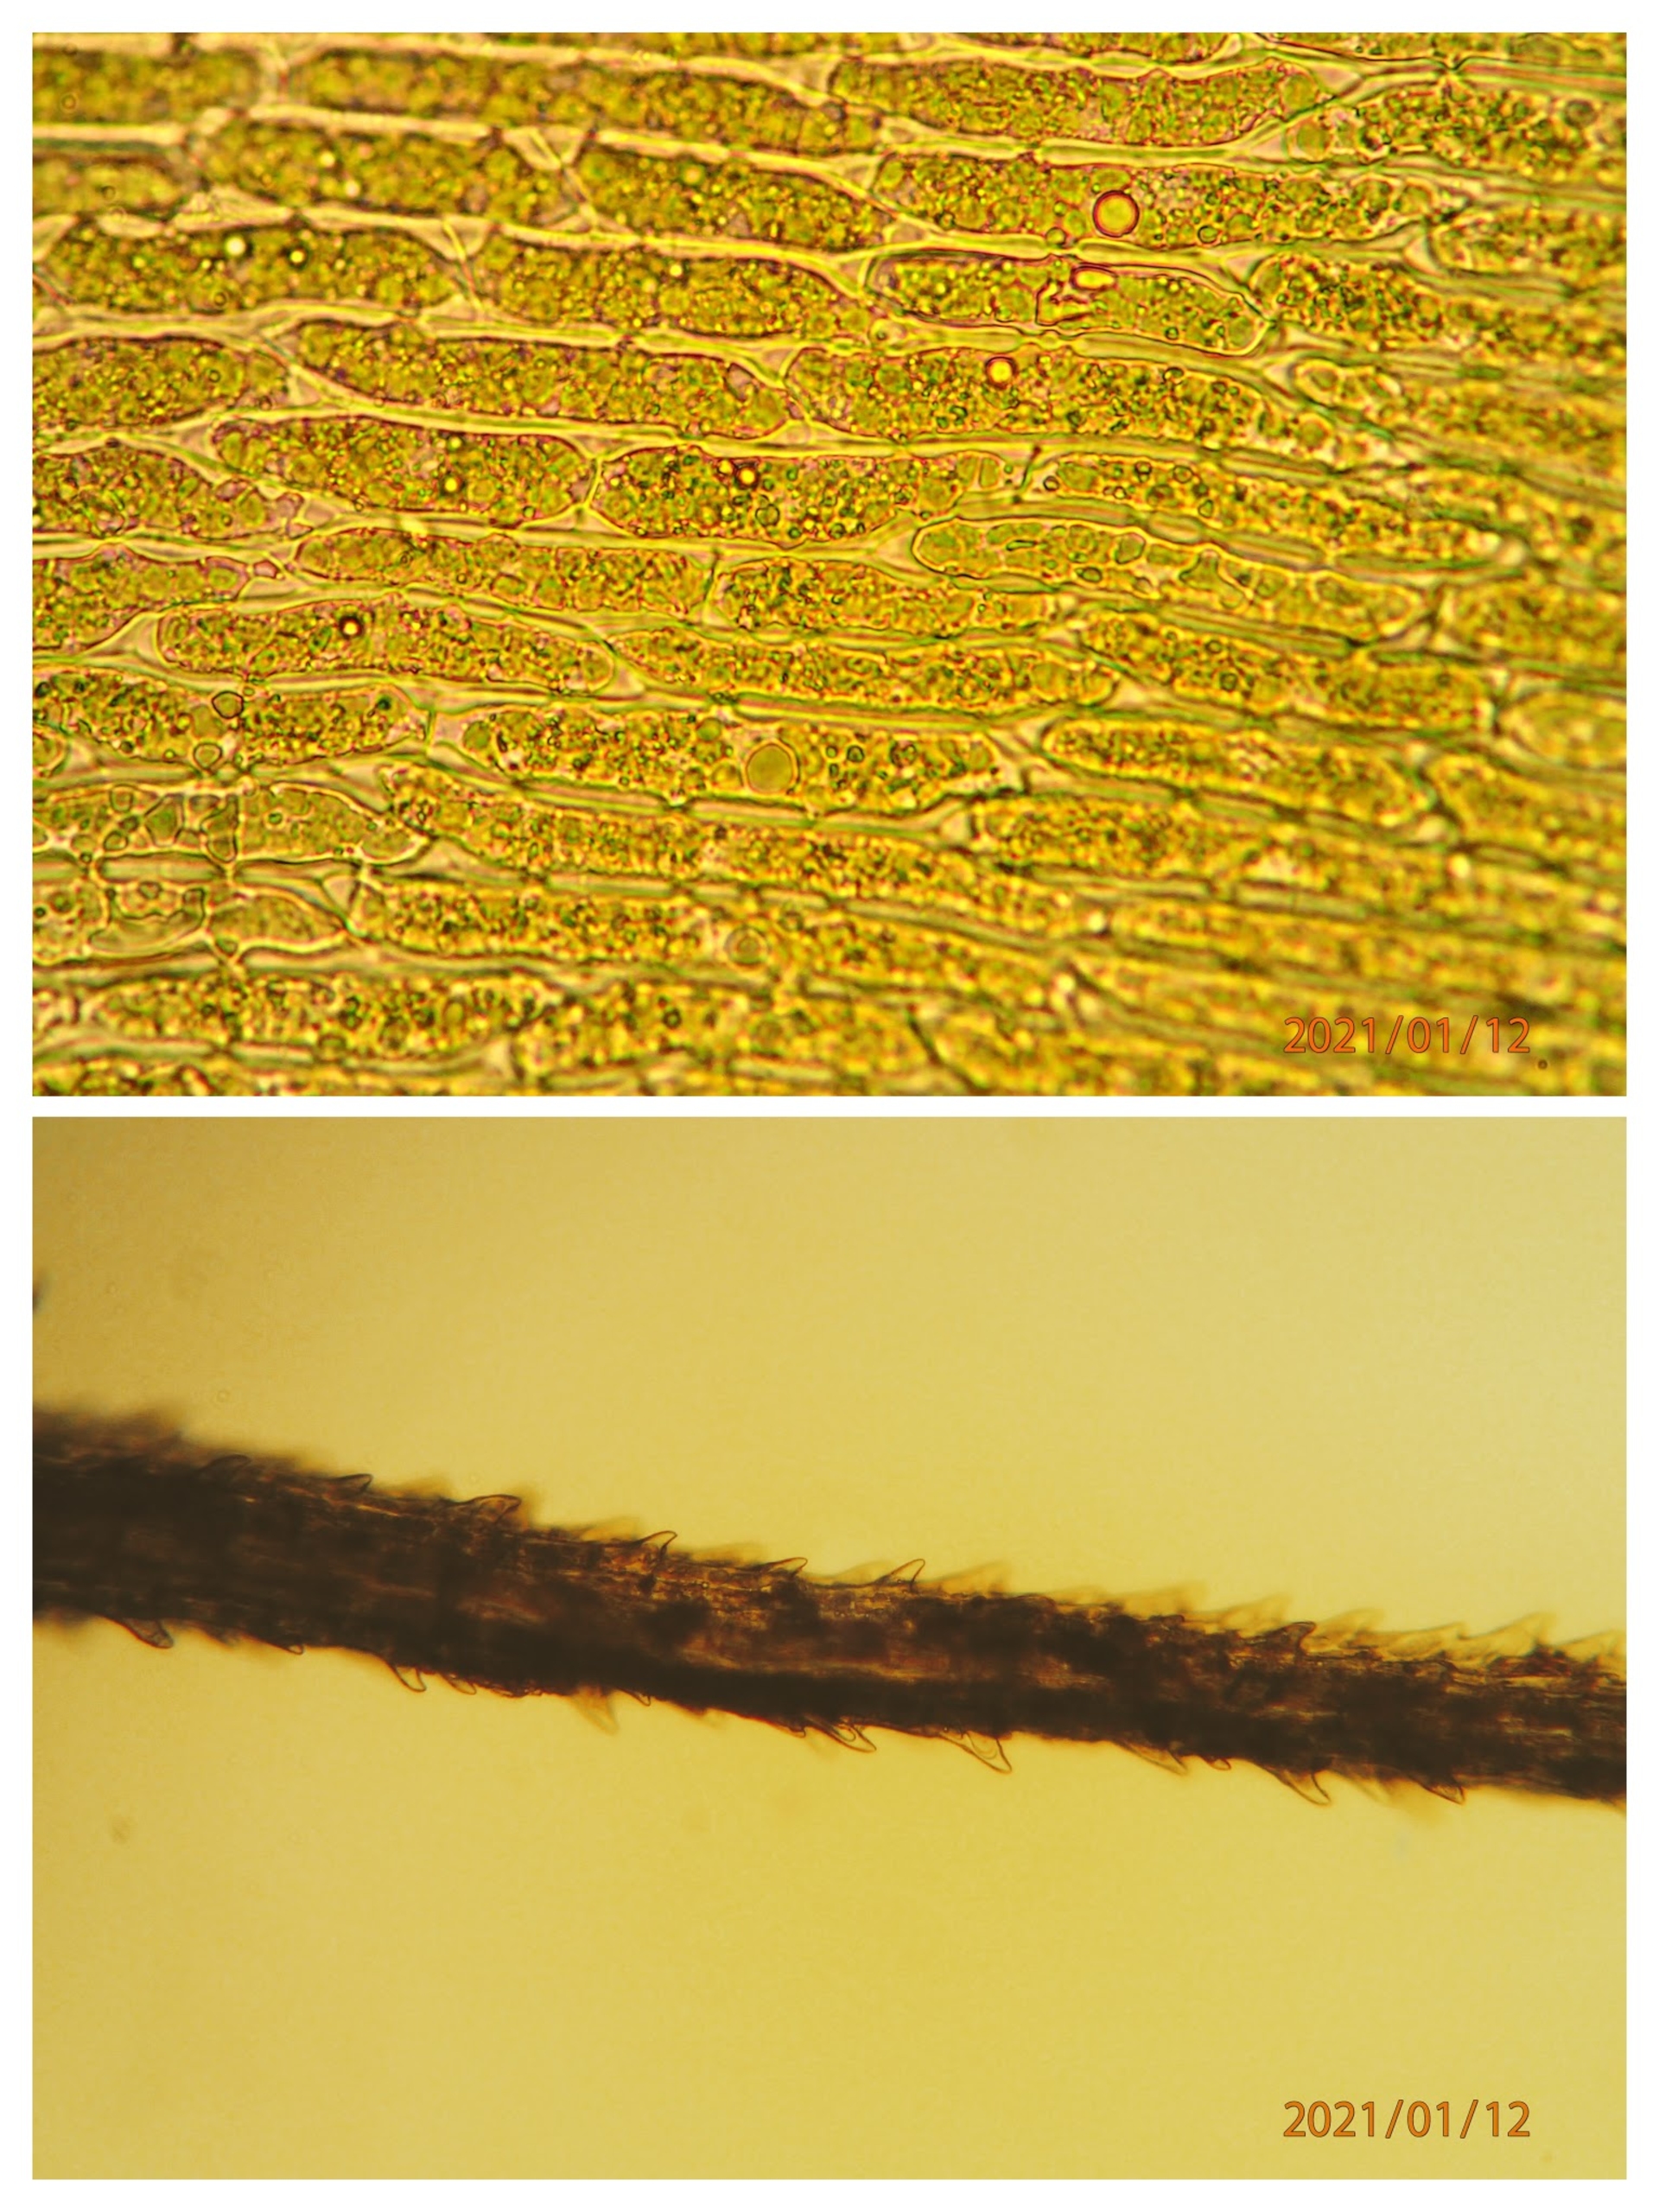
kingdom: Plantae
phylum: Bryophyta
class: Bryopsida
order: Dicranales
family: Dicranaceae
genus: Dicranum
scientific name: Dicranum majus
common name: Stor kløvtand
